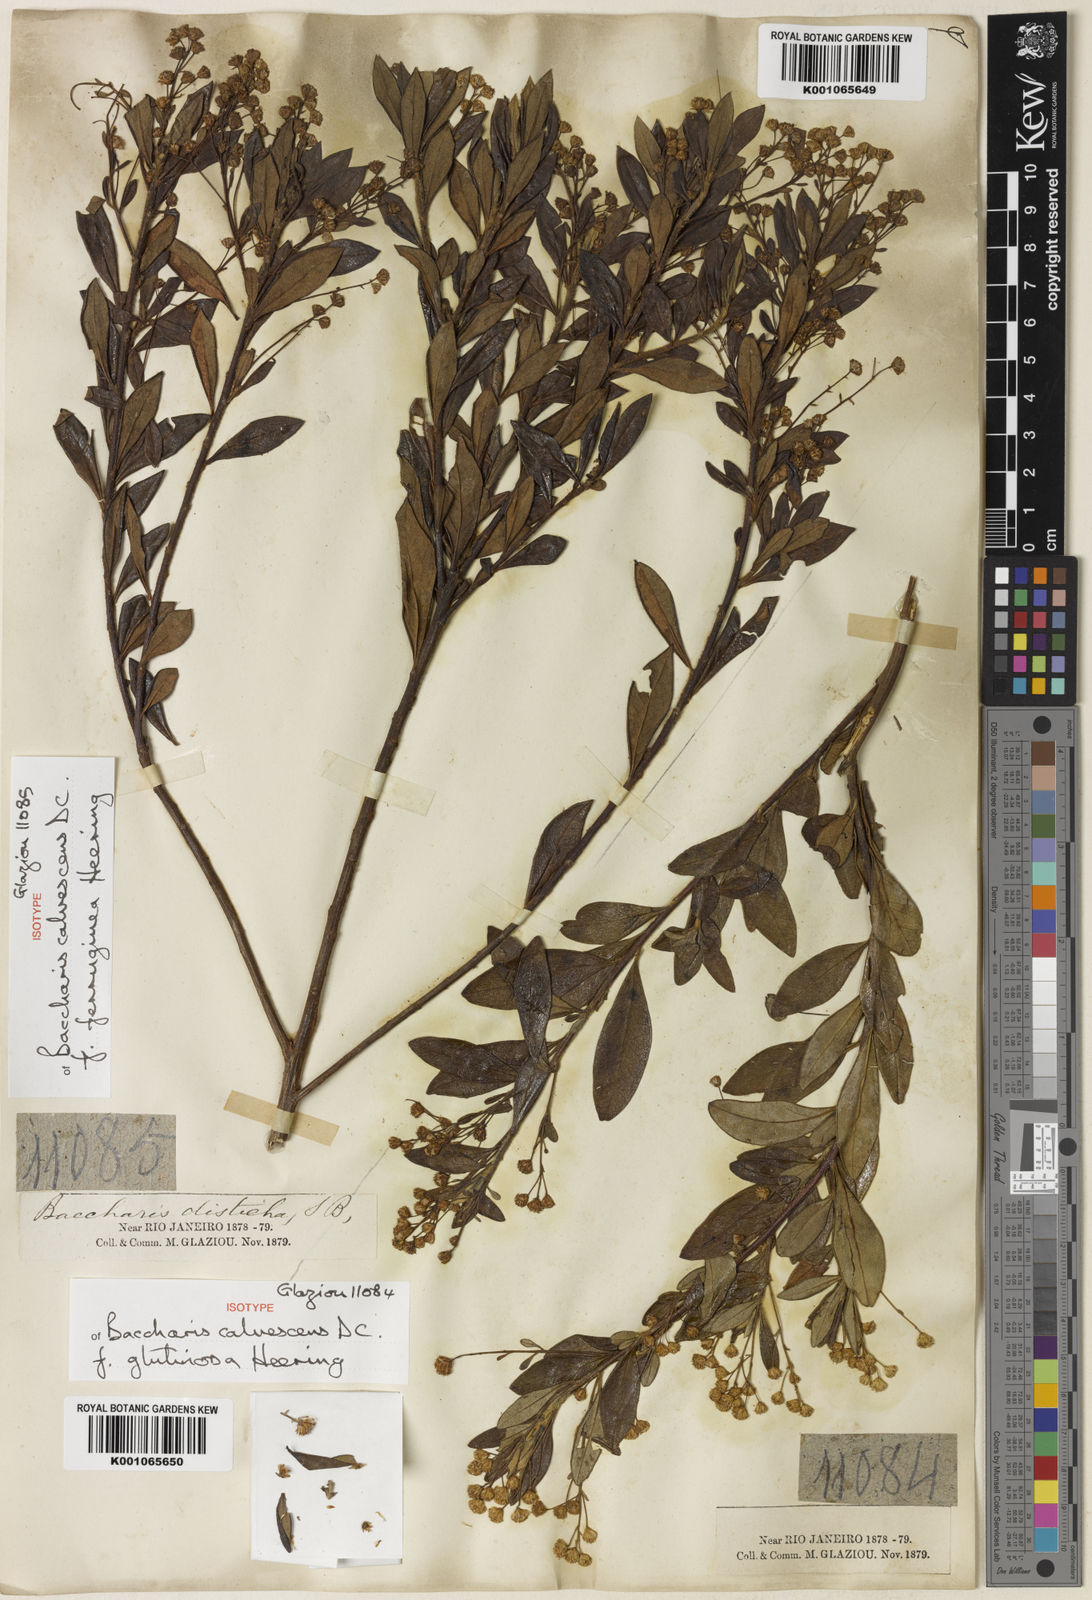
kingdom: Plantae
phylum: Tracheophyta
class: Magnoliopsida
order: Asterales
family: Asteraceae
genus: Baccharis
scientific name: Baccharis calvescens
